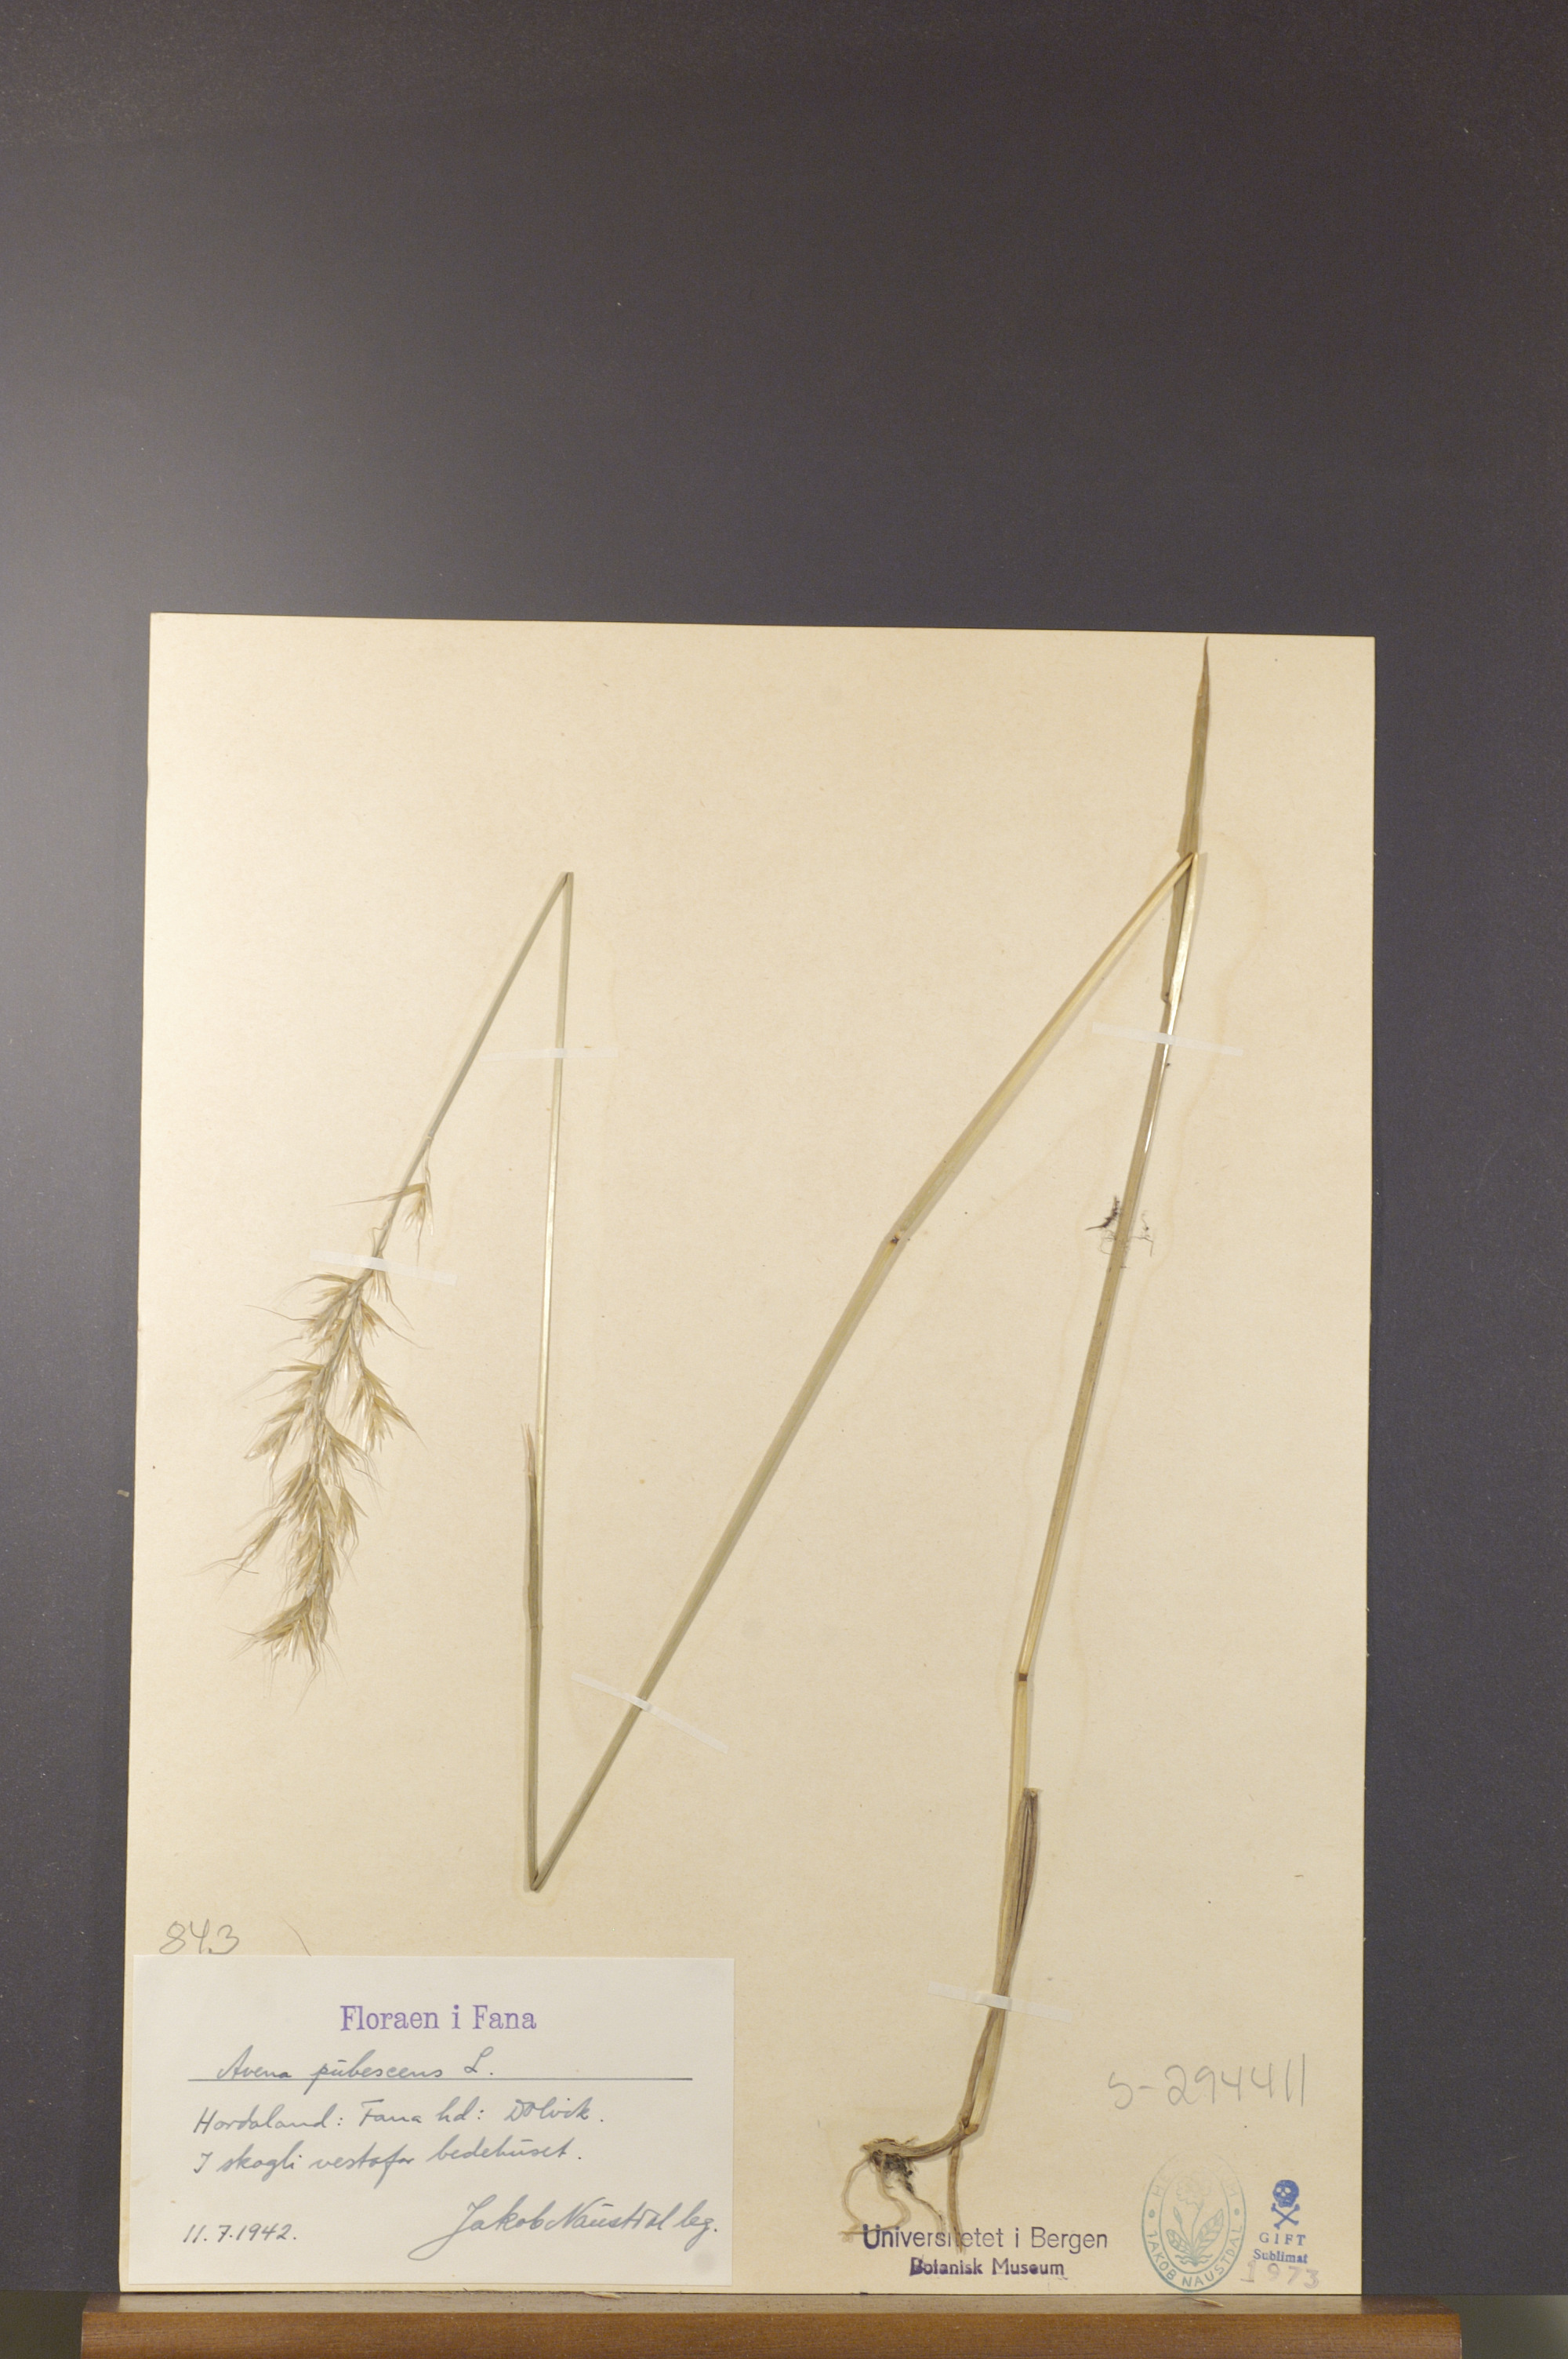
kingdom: Plantae
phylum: Tracheophyta
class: Liliopsida
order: Poales
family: Poaceae
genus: Avenula
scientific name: Avenula pubescens
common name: Downy alpine oatgrass
